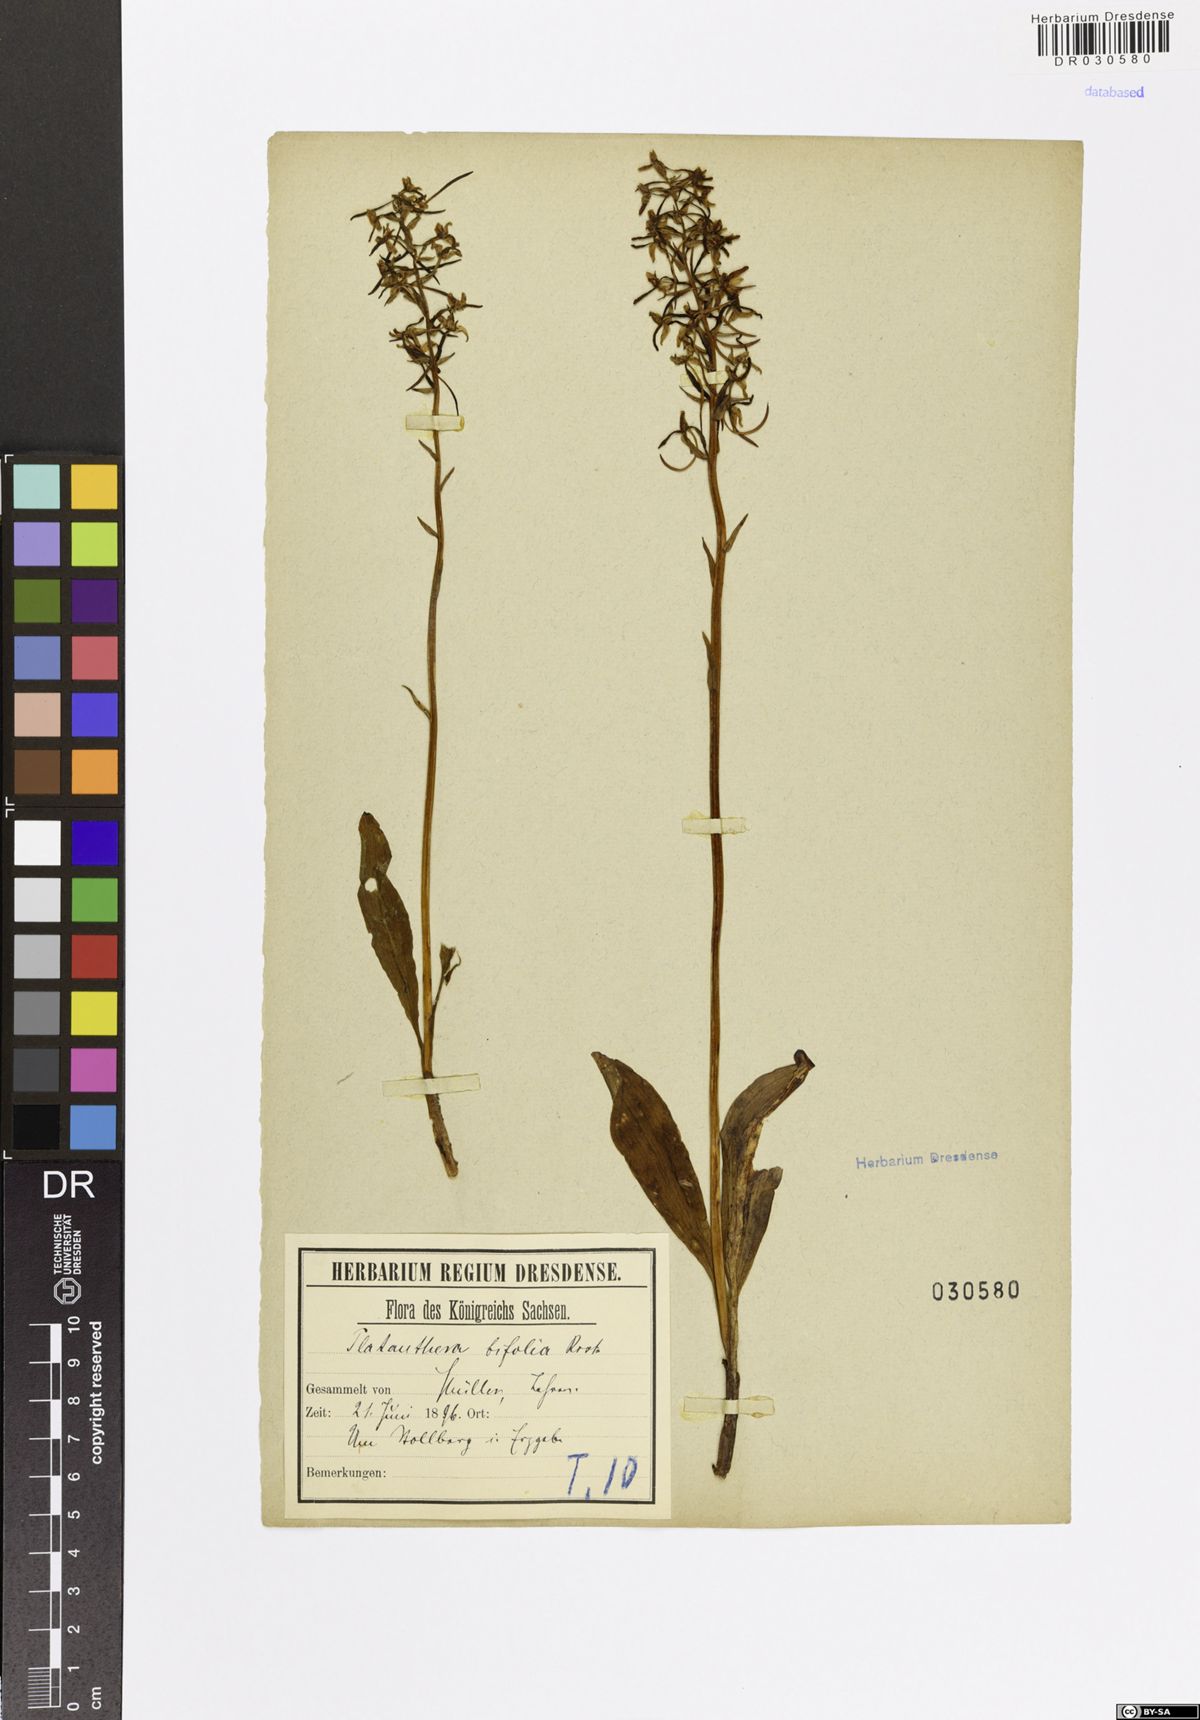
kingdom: Plantae
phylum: Tracheophyta
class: Liliopsida
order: Asparagales
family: Orchidaceae
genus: Platanthera
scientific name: Platanthera bifolia
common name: Lesser butterfly-orchid
